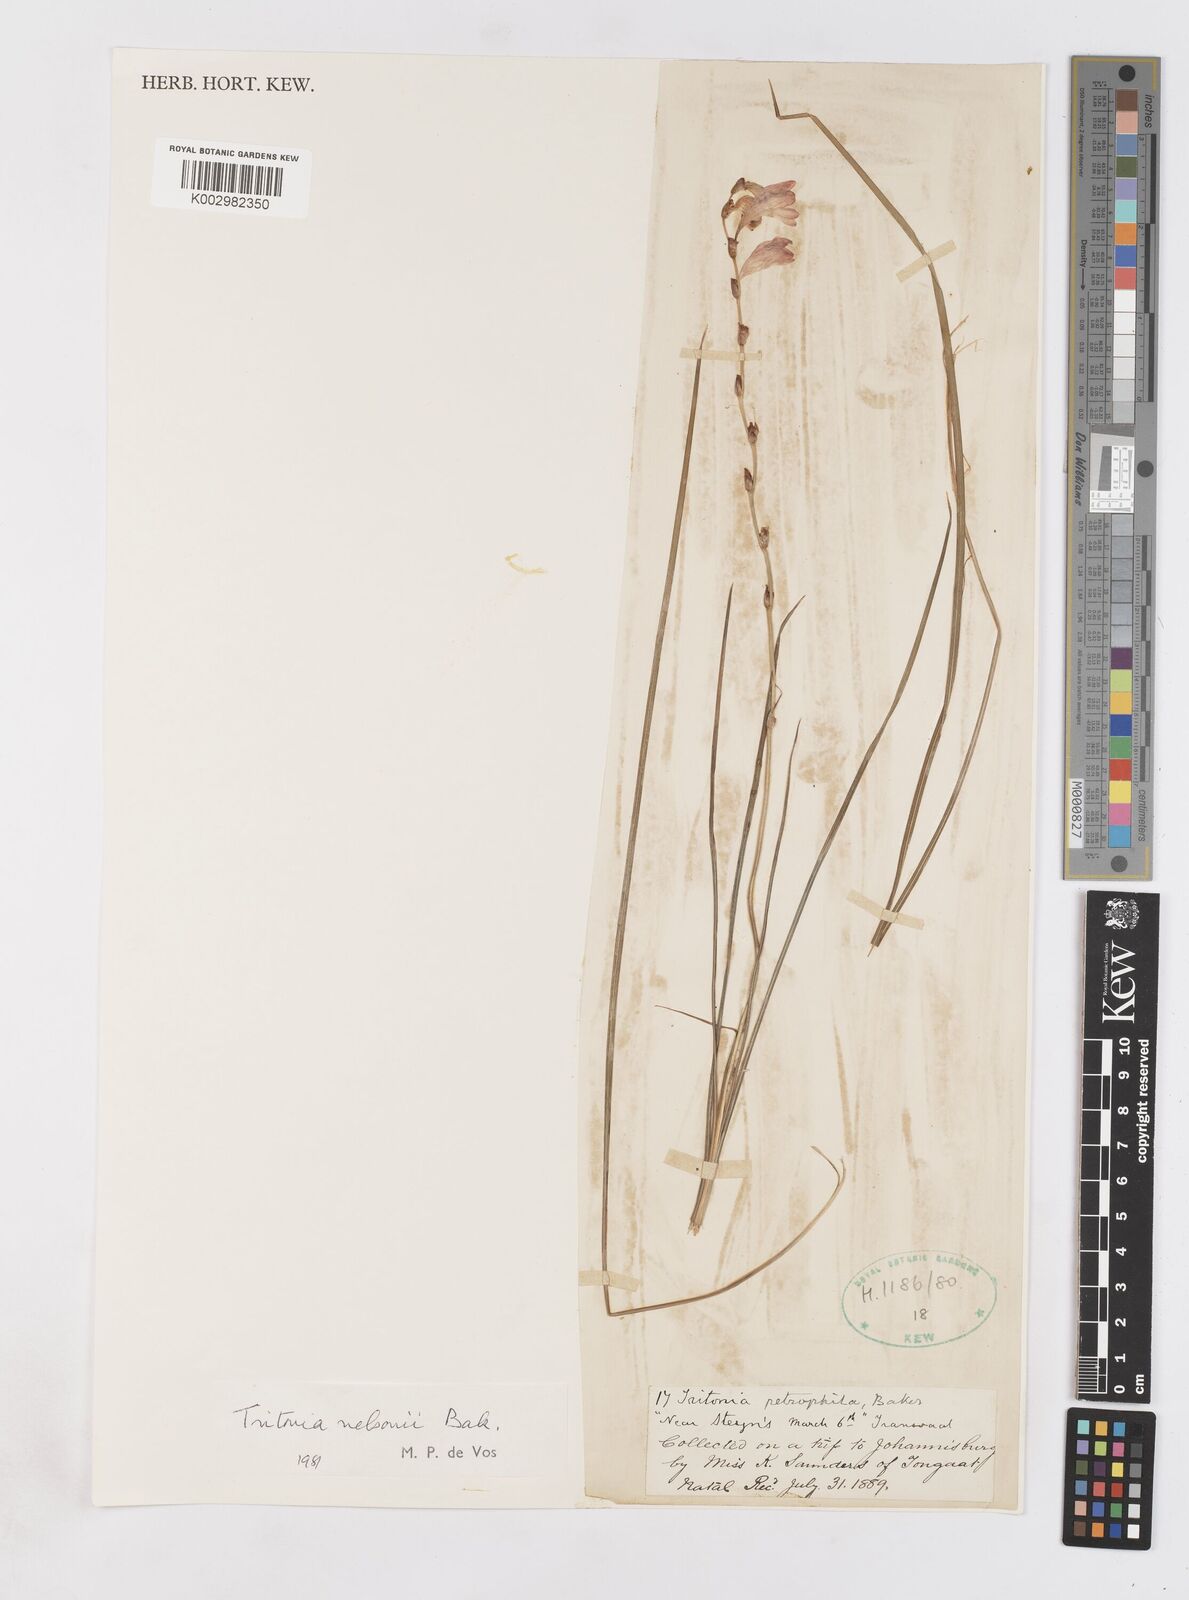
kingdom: Plantae
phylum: Tracheophyta
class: Liliopsida
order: Asparagales
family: Iridaceae
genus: Tritonia
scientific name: Tritonia nelsonii
